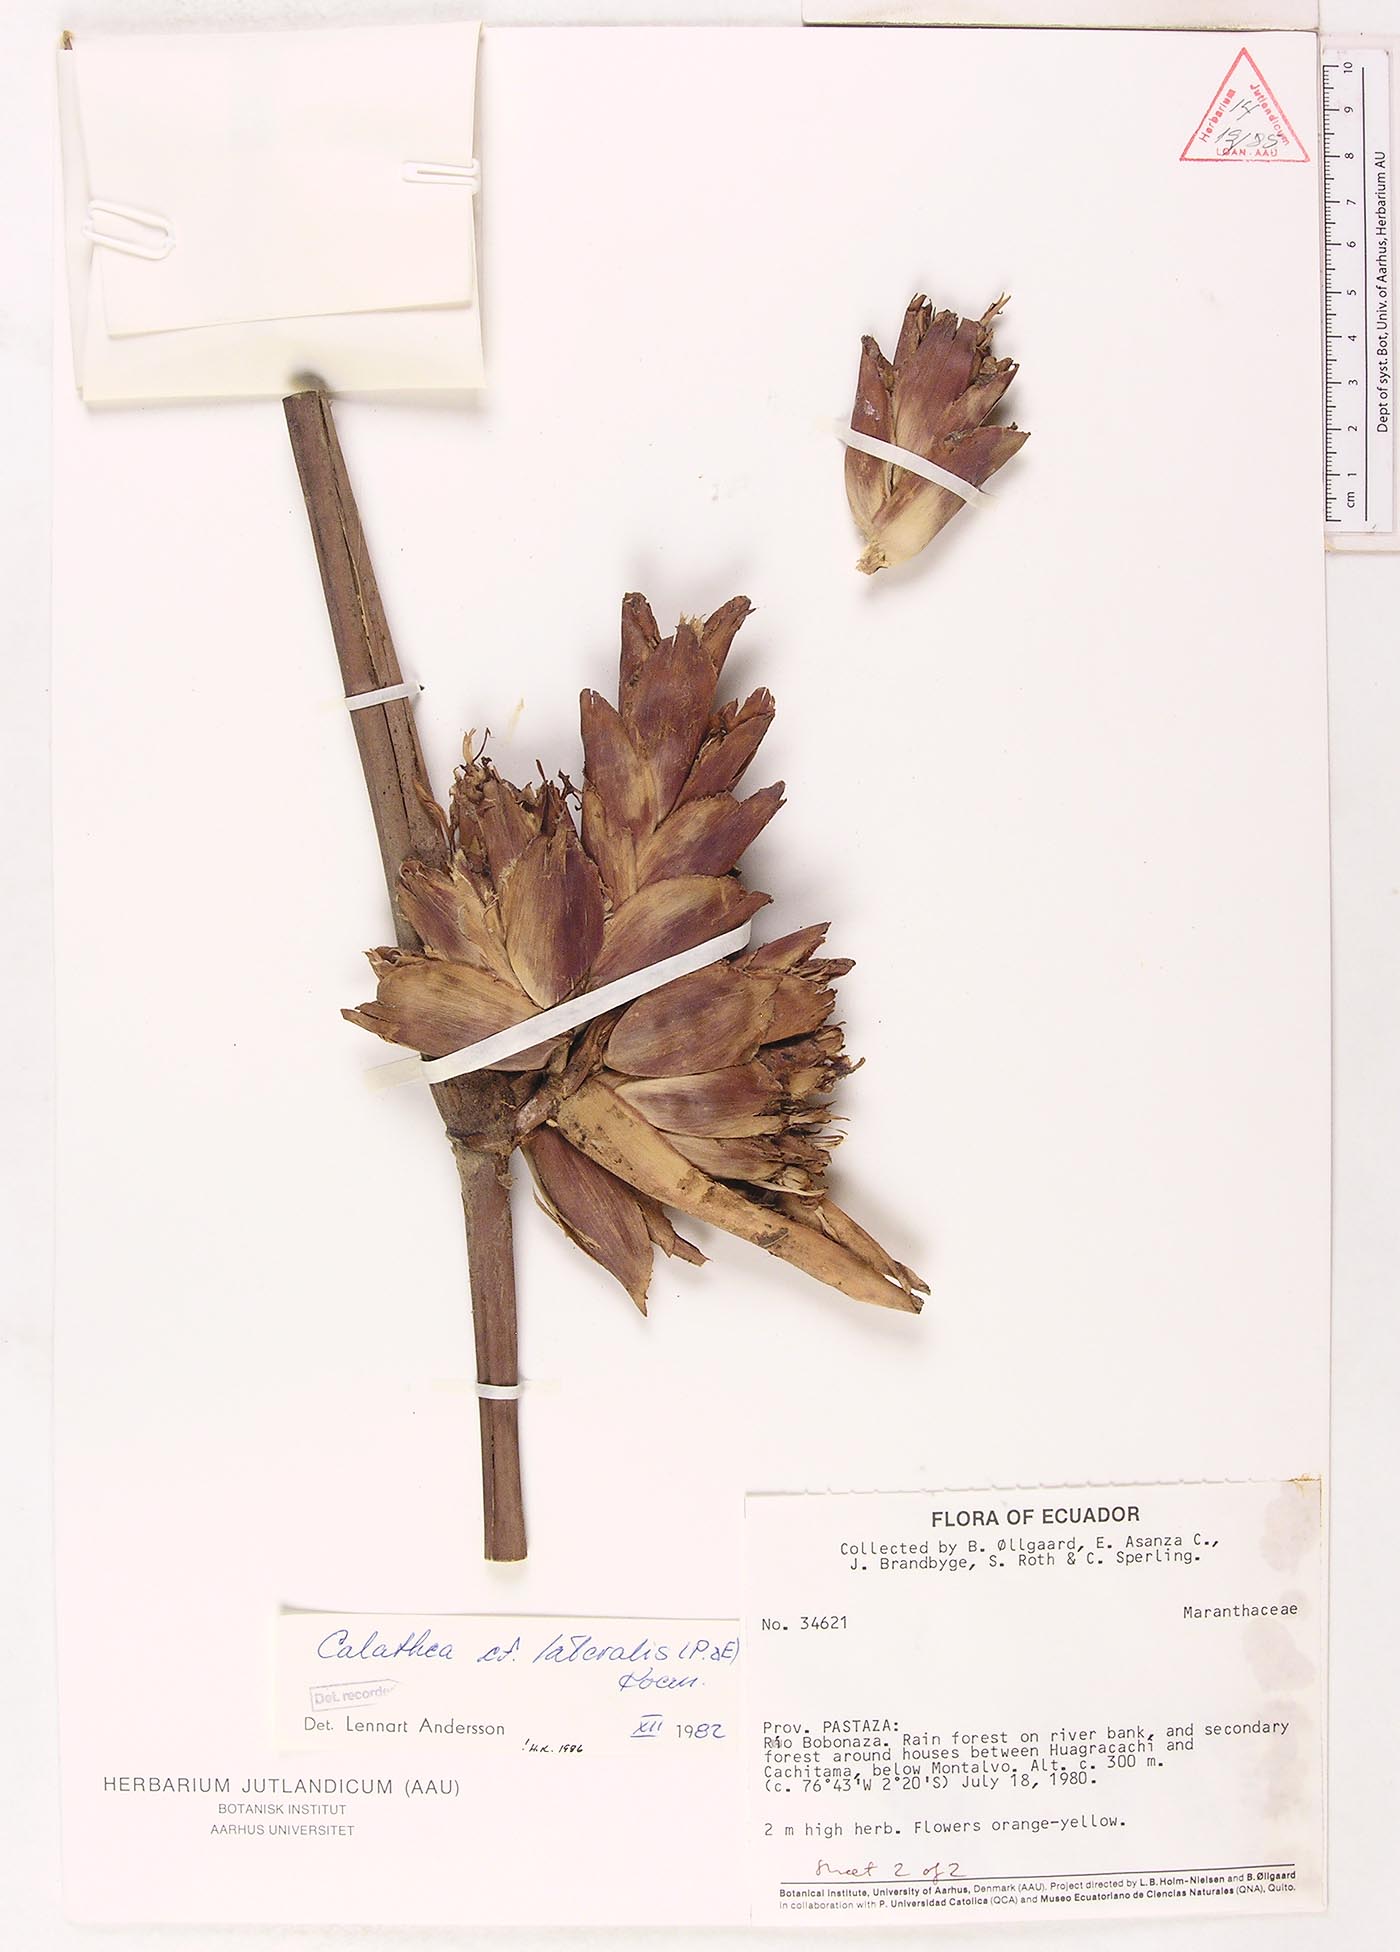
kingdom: Plantae
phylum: Tracheophyta
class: Liliopsida
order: Zingiberales
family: Marantaceae
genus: Calathea
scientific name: Calathea lateralis
